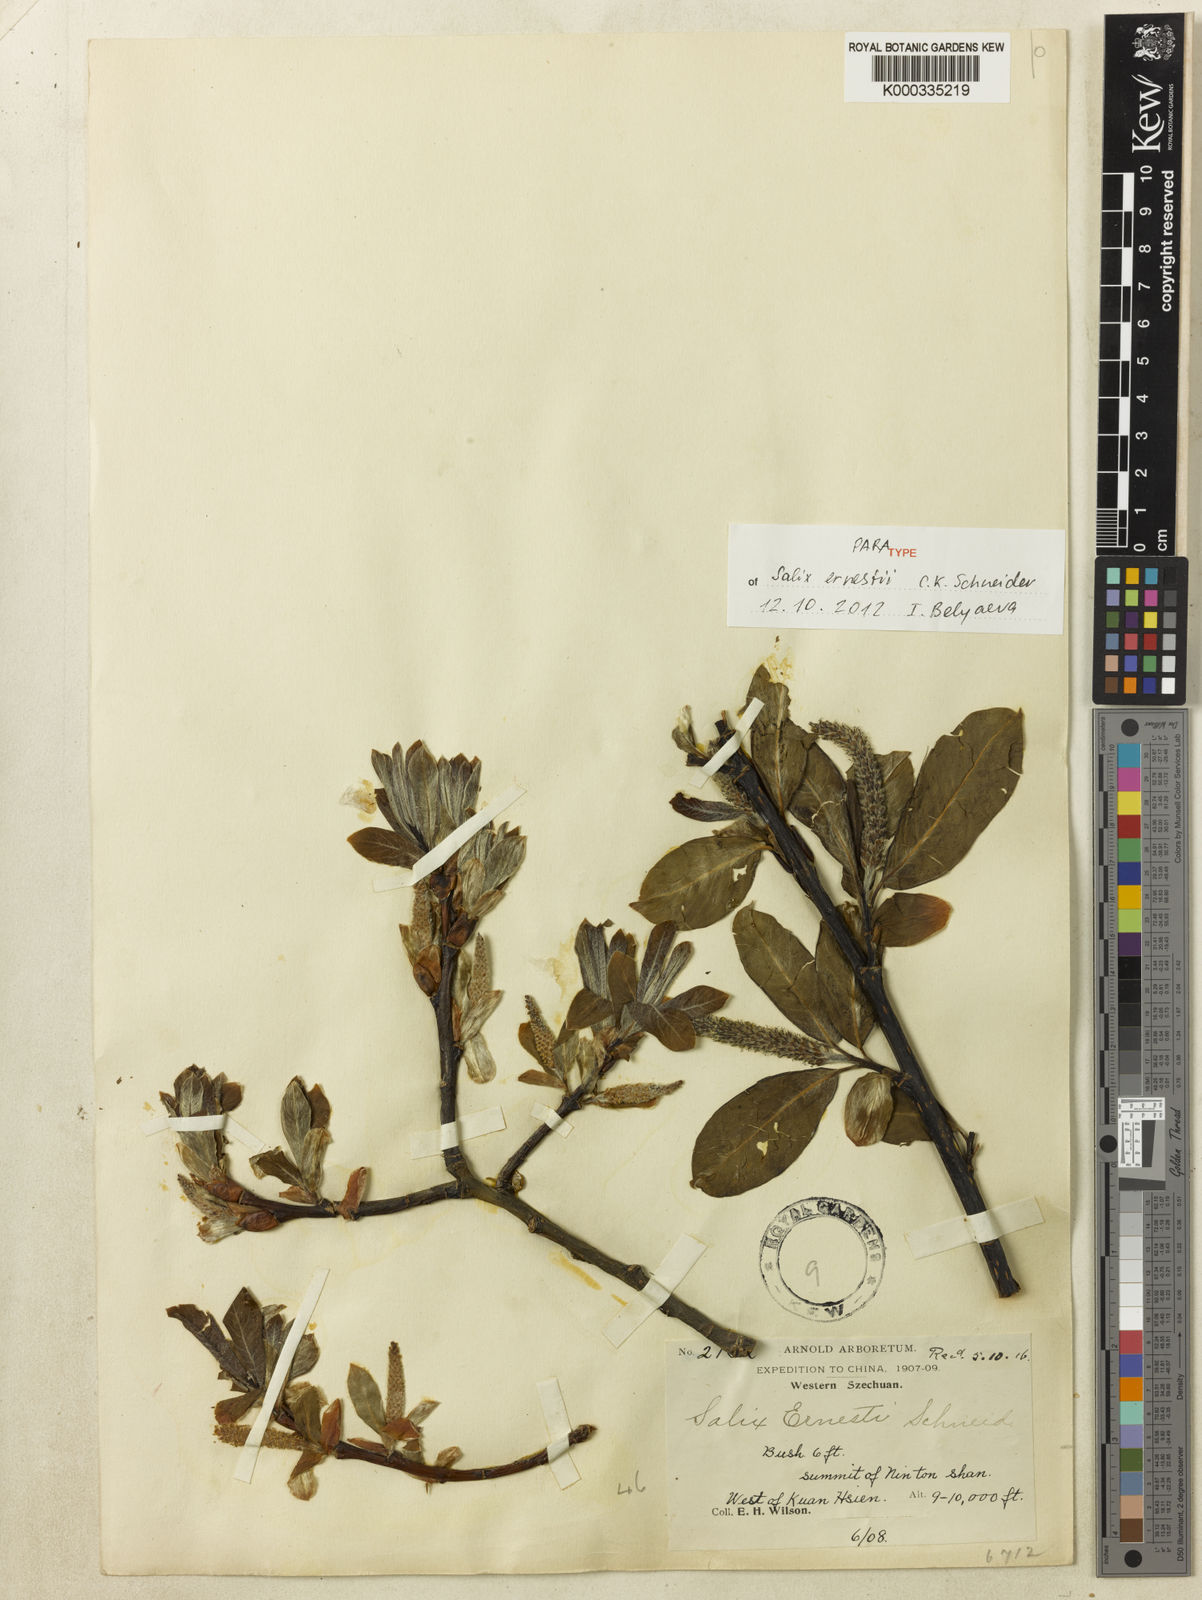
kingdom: Plantae
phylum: Tracheophyta
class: Magnoliopsida
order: Malpighiales
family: Salicaceae
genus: Salix
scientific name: Salix ernestii
